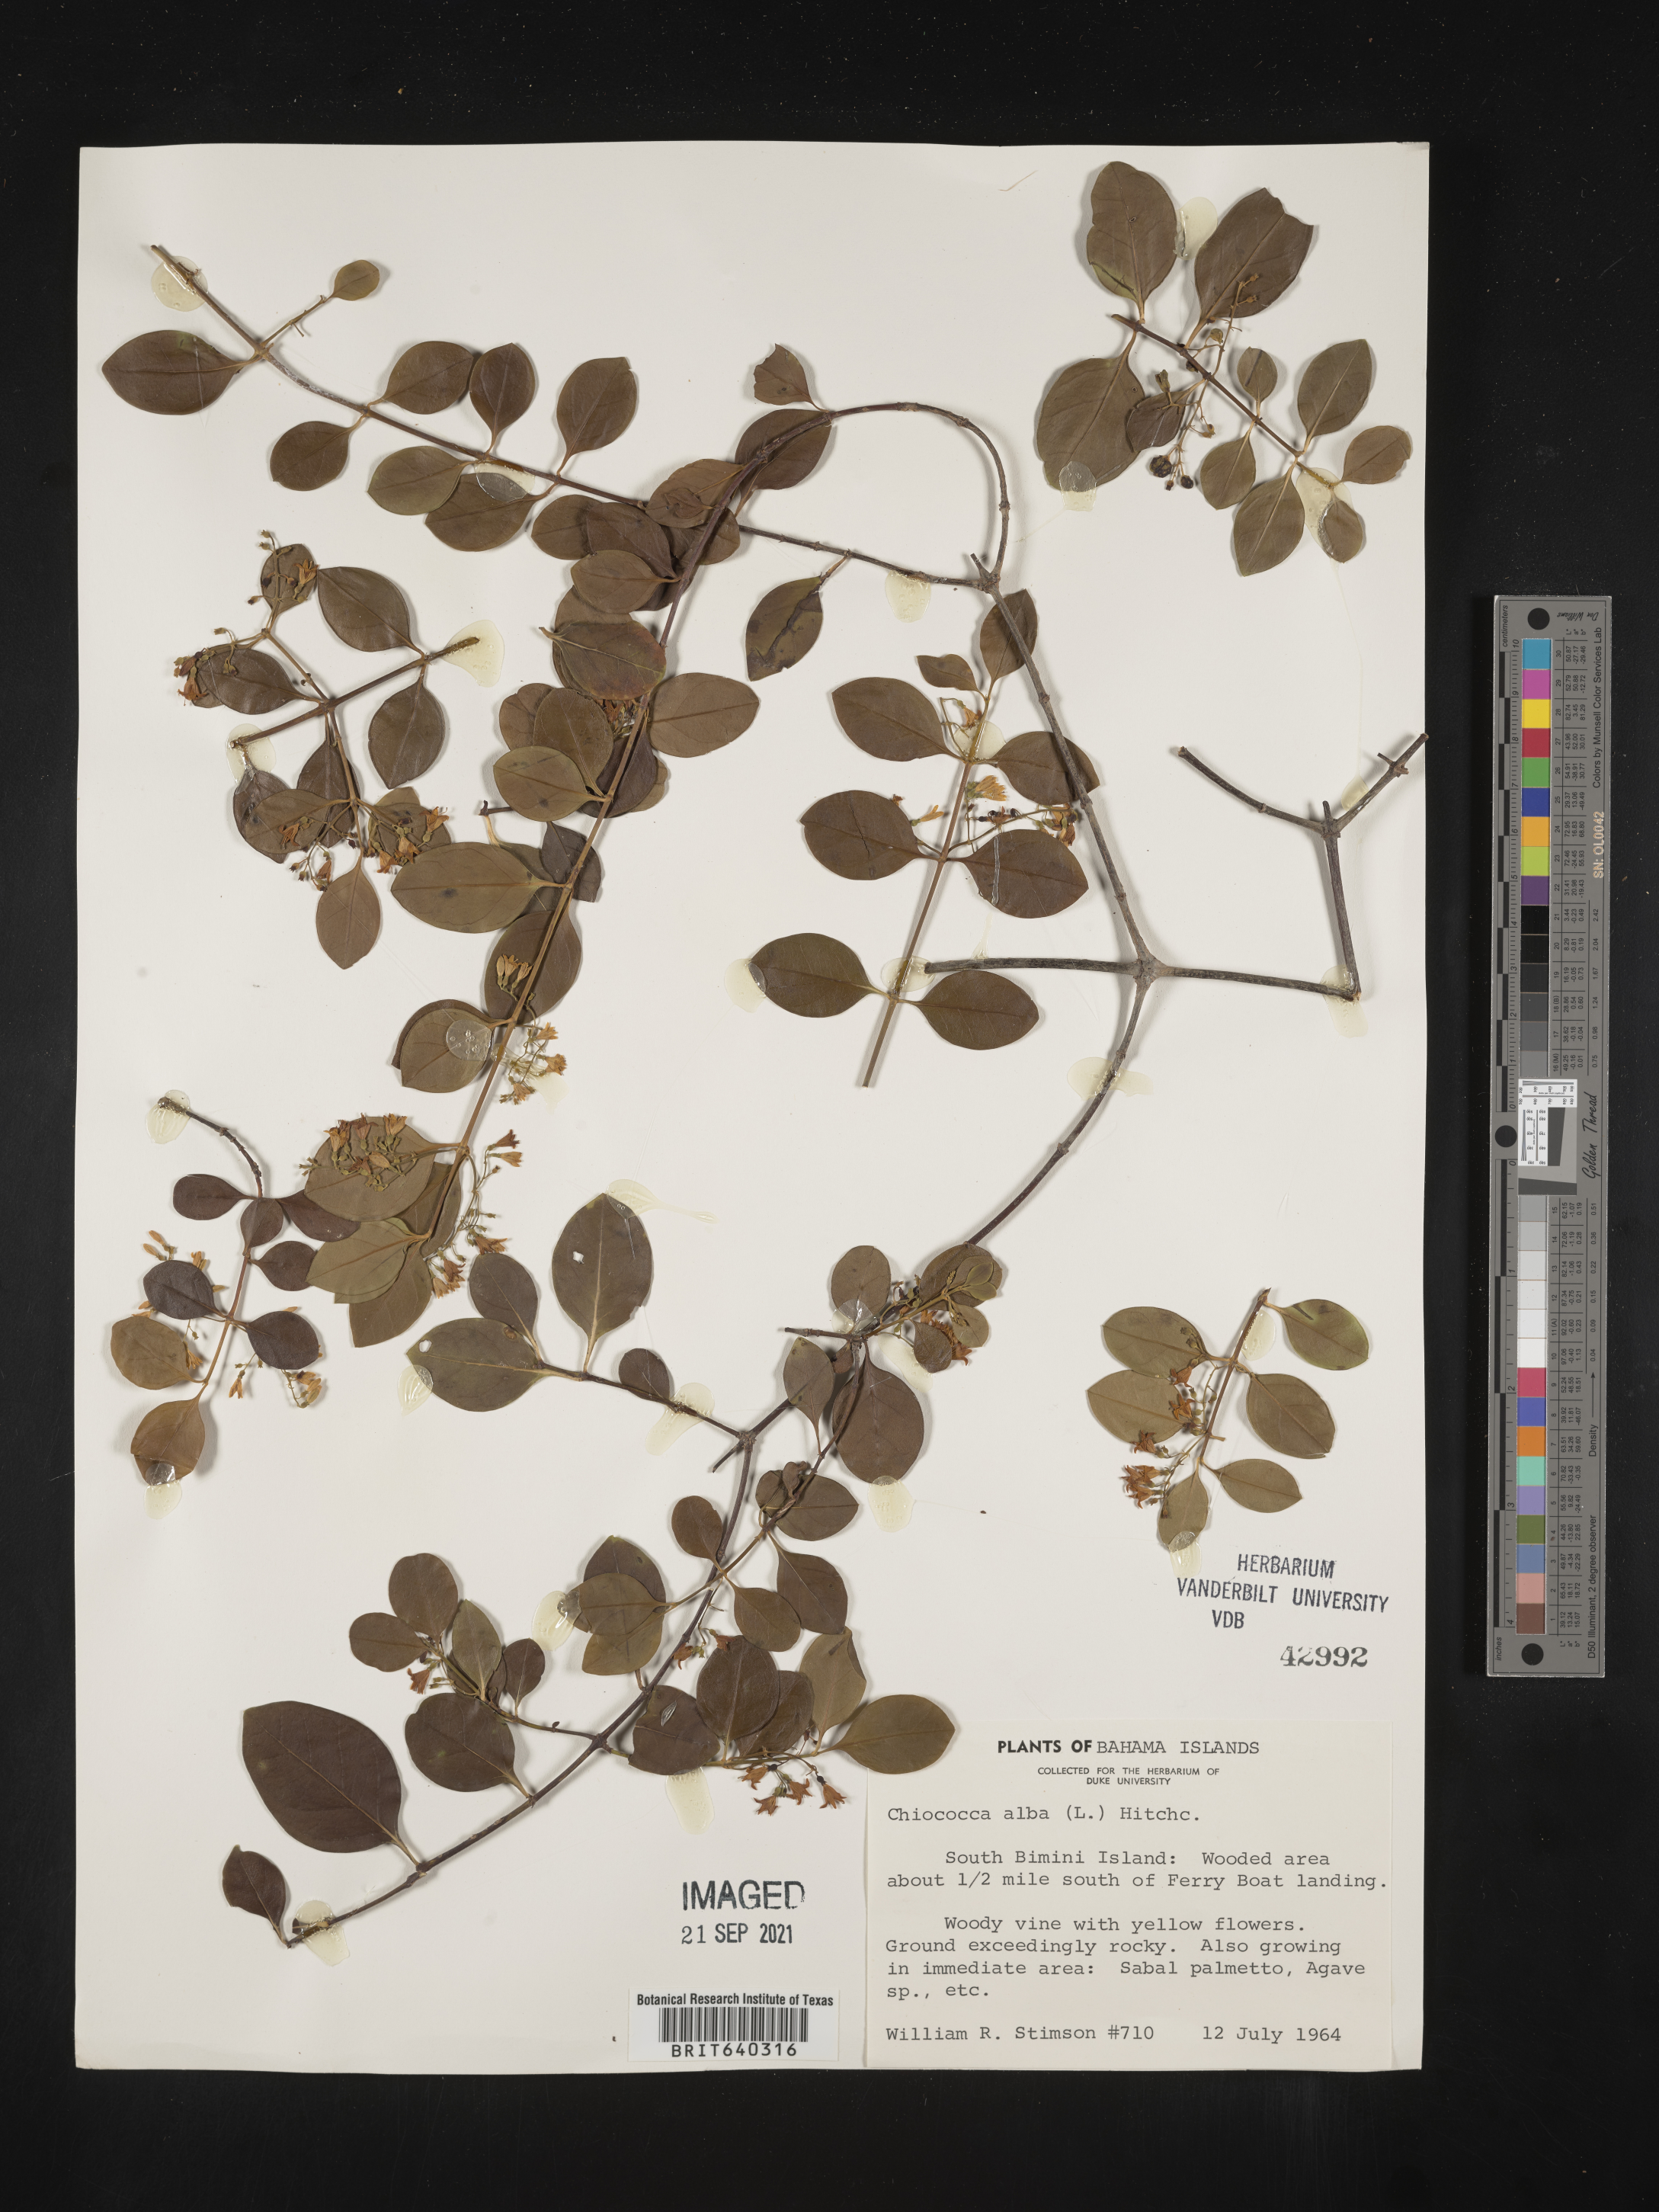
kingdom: Plantae
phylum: Tracheophyta
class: Magnoliopsida
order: Gentianales
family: Rubiaceae
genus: Chiococca
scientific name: Chiococca
